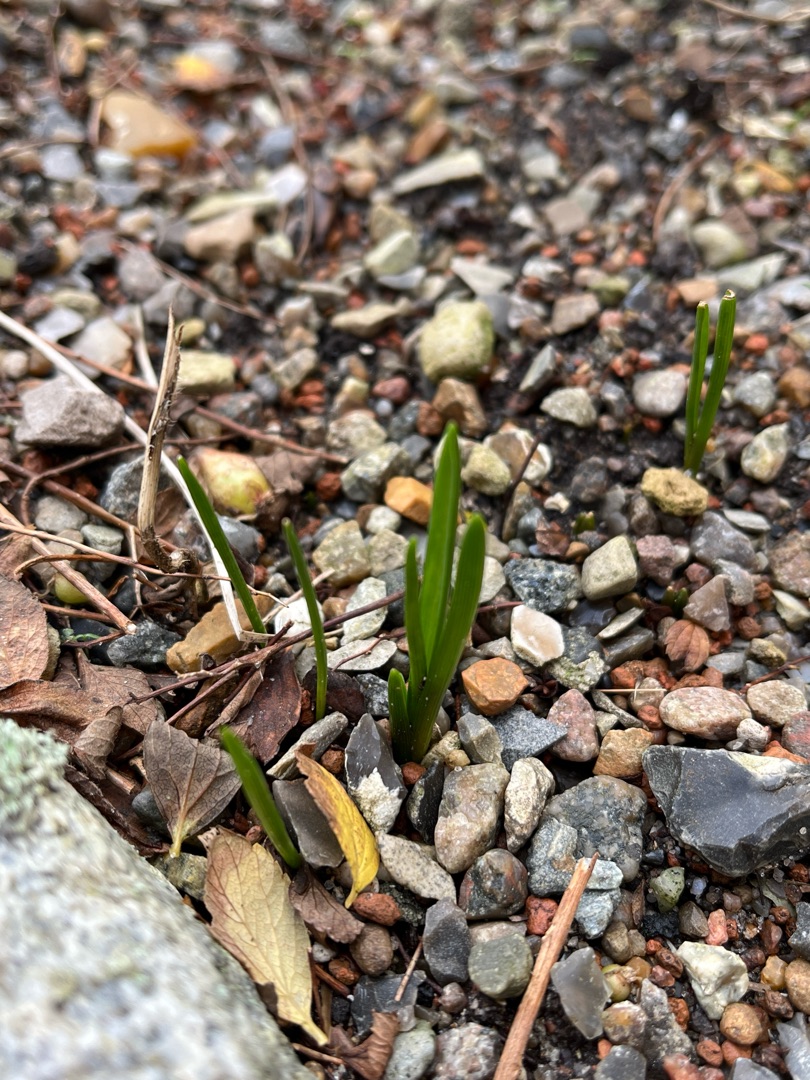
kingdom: Plantae
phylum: Tracheophyta
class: Liliopsida
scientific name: Liliopsida
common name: Enkimbladede
